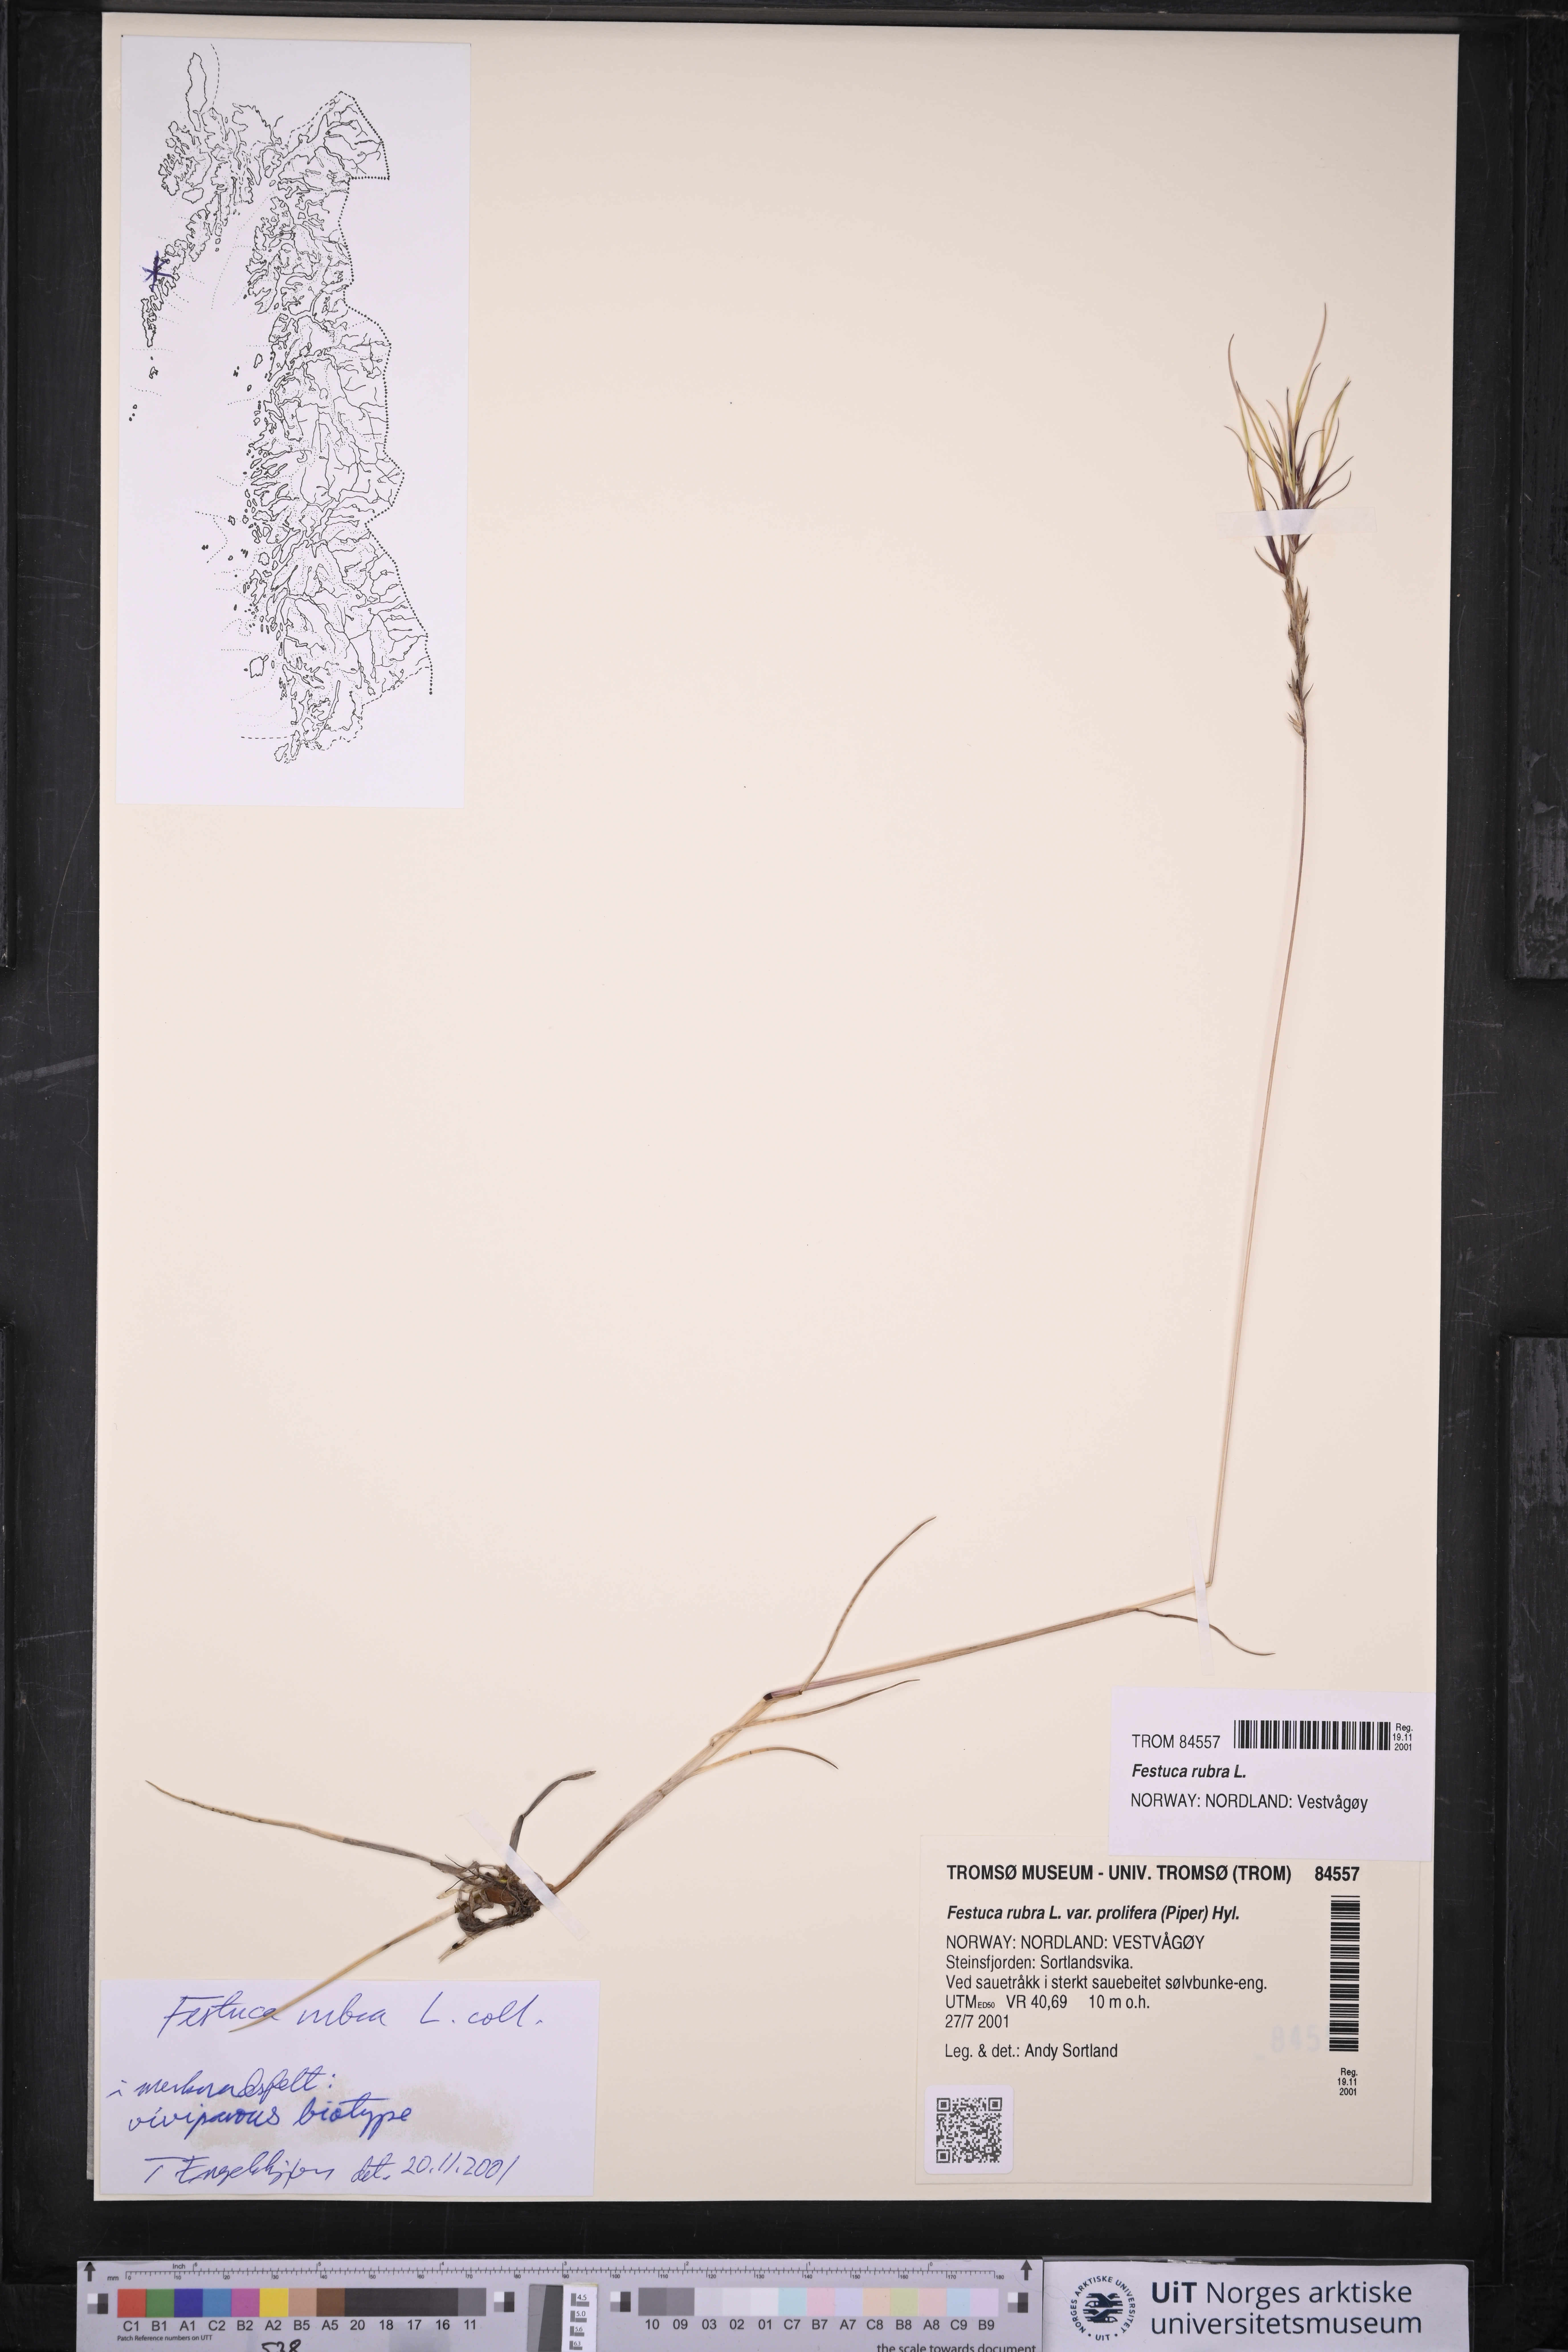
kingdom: Plantae
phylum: Tracheophyta
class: Liliopsida
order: Poales
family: Poaceae
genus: Festuca
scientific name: Festuca rubra
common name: Red fescue
